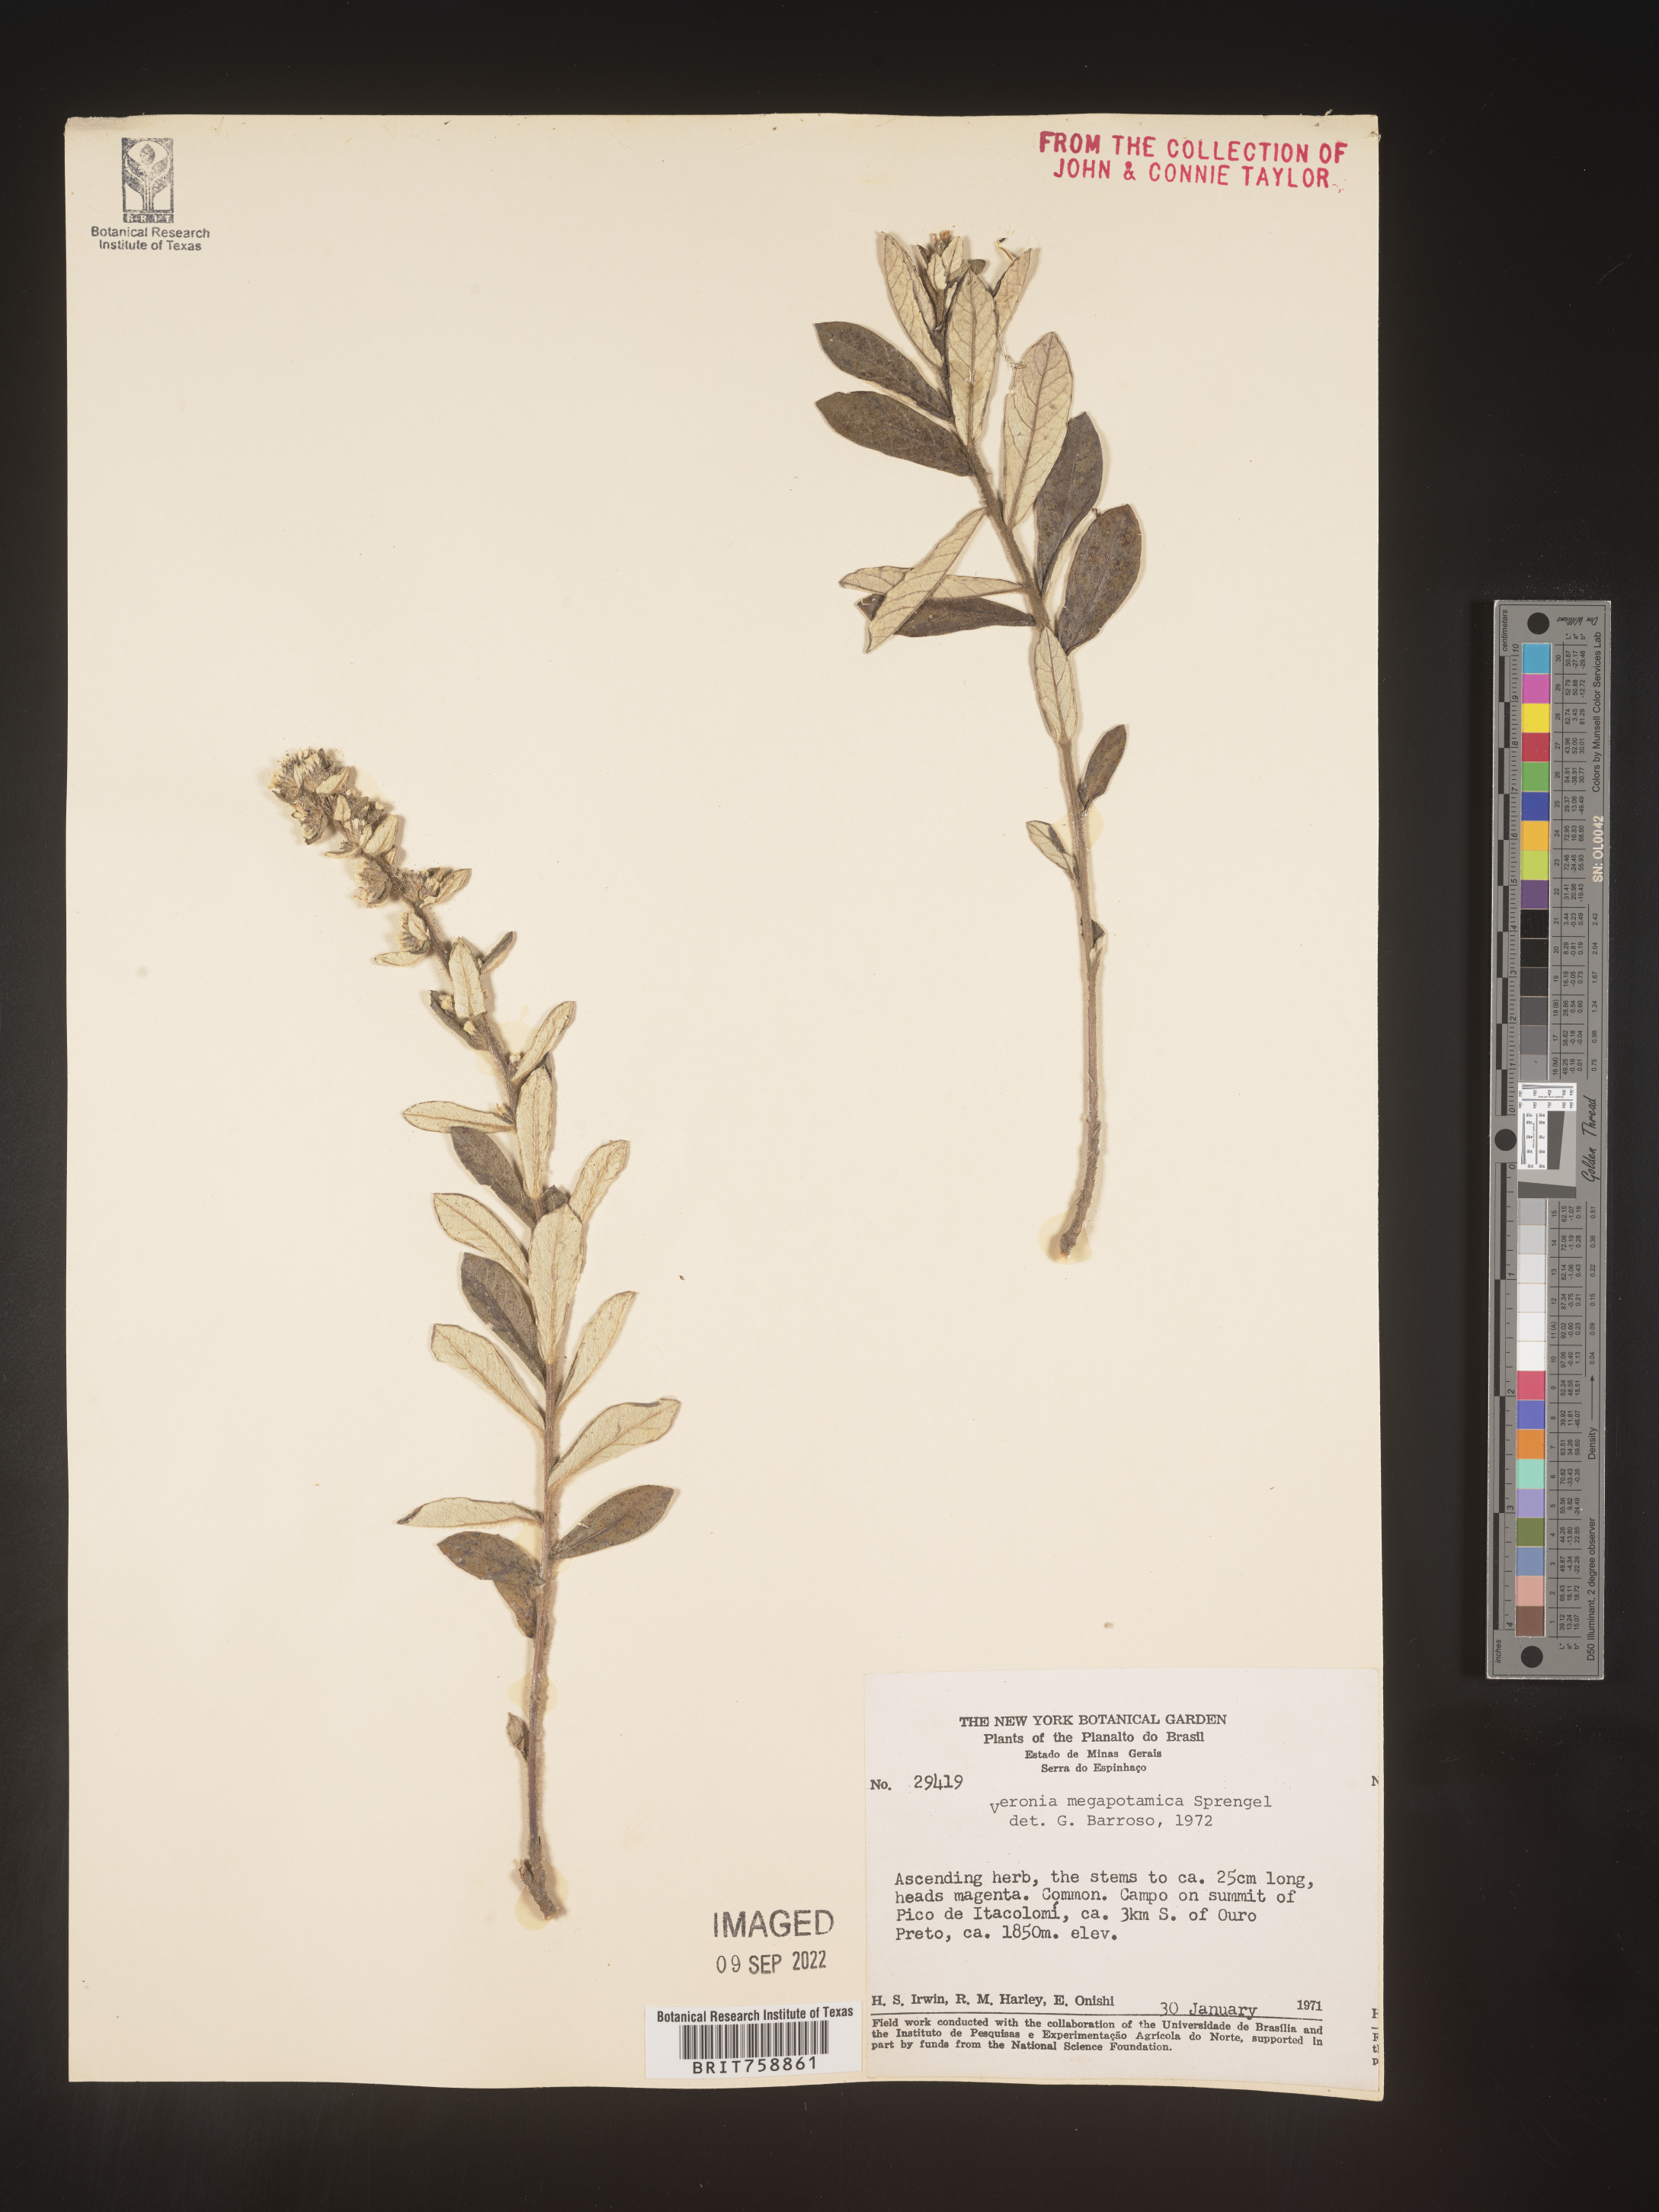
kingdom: Plantae
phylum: Tracheophyta
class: Magnoliopsida
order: Asterales
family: Asteraceae
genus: Vernonia
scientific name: Vernonia
